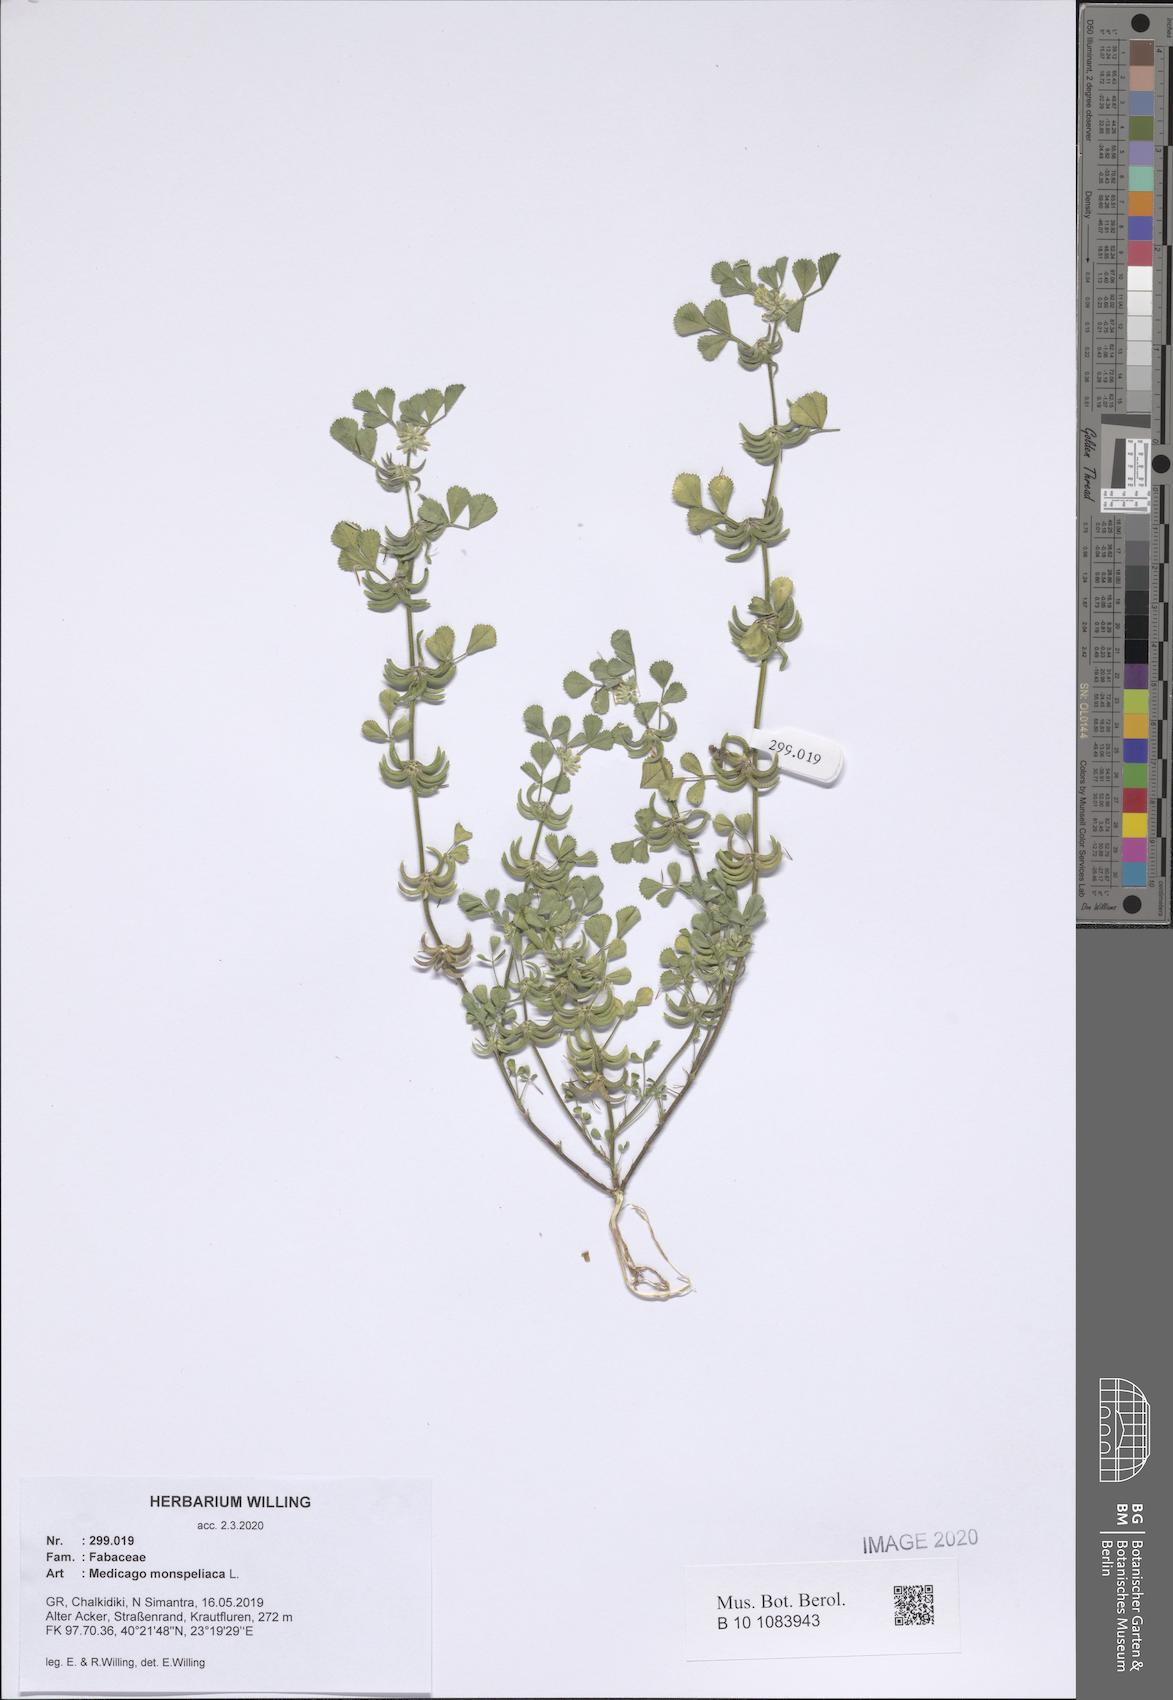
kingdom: Plantae
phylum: Tracheophyta
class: Magnoliopsida
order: Fabales
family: Fabaceae
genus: Medicago
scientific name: Medicago monspeliaca
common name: Hairy medick
